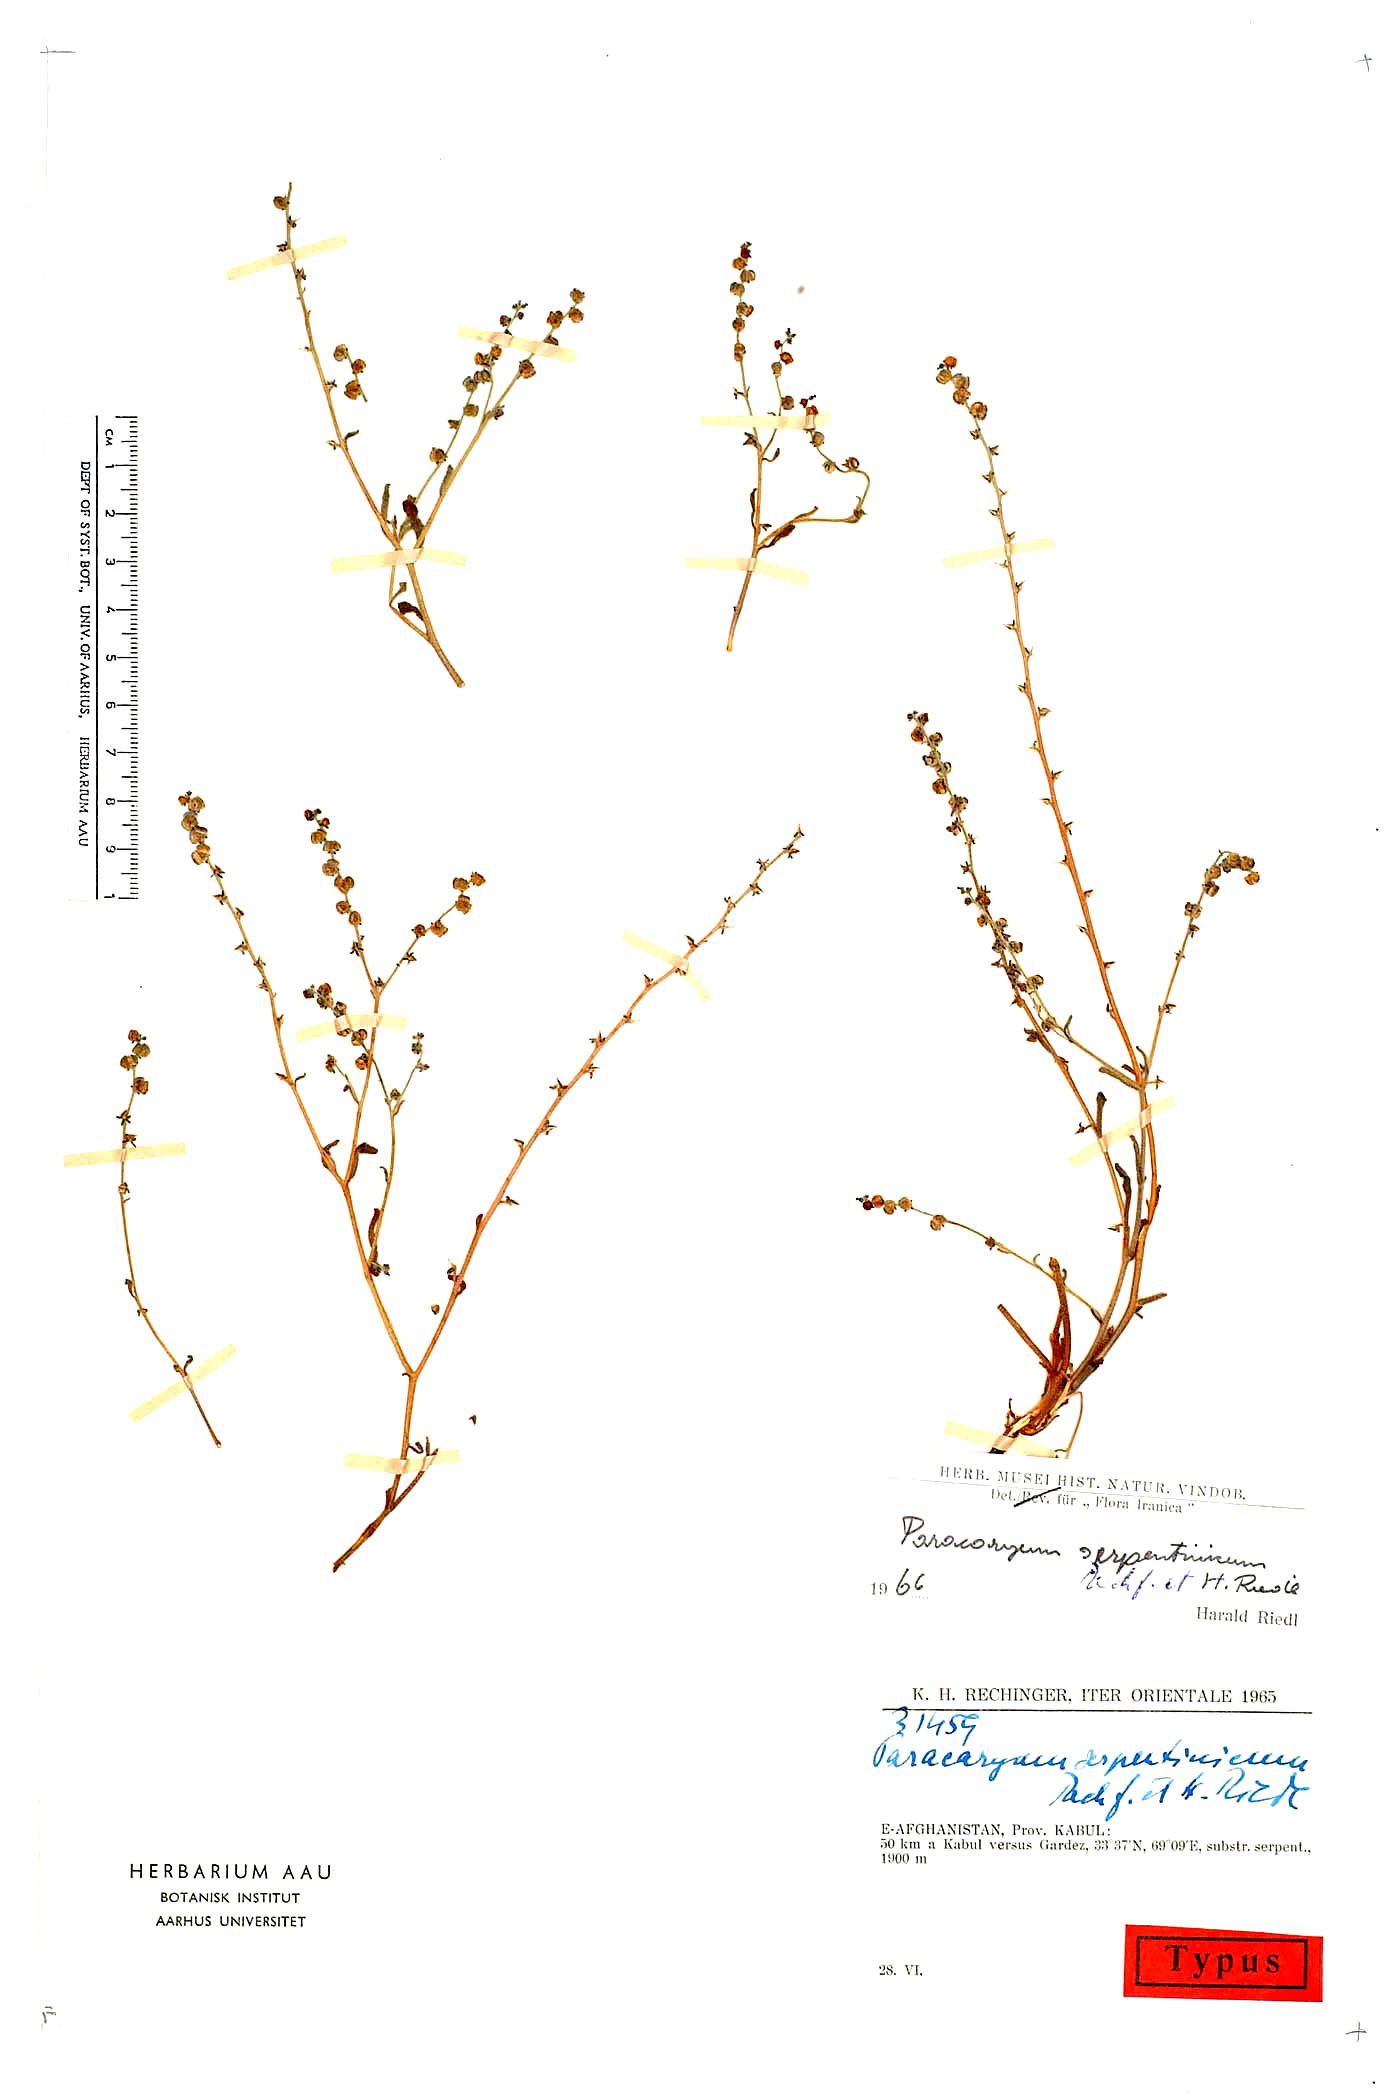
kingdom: Plantae
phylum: Tracheophyta
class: Magnoliopsida
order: Boraginales
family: Boraginaceae
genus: Microparacaryum
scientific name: Microparacaryum intermedium
